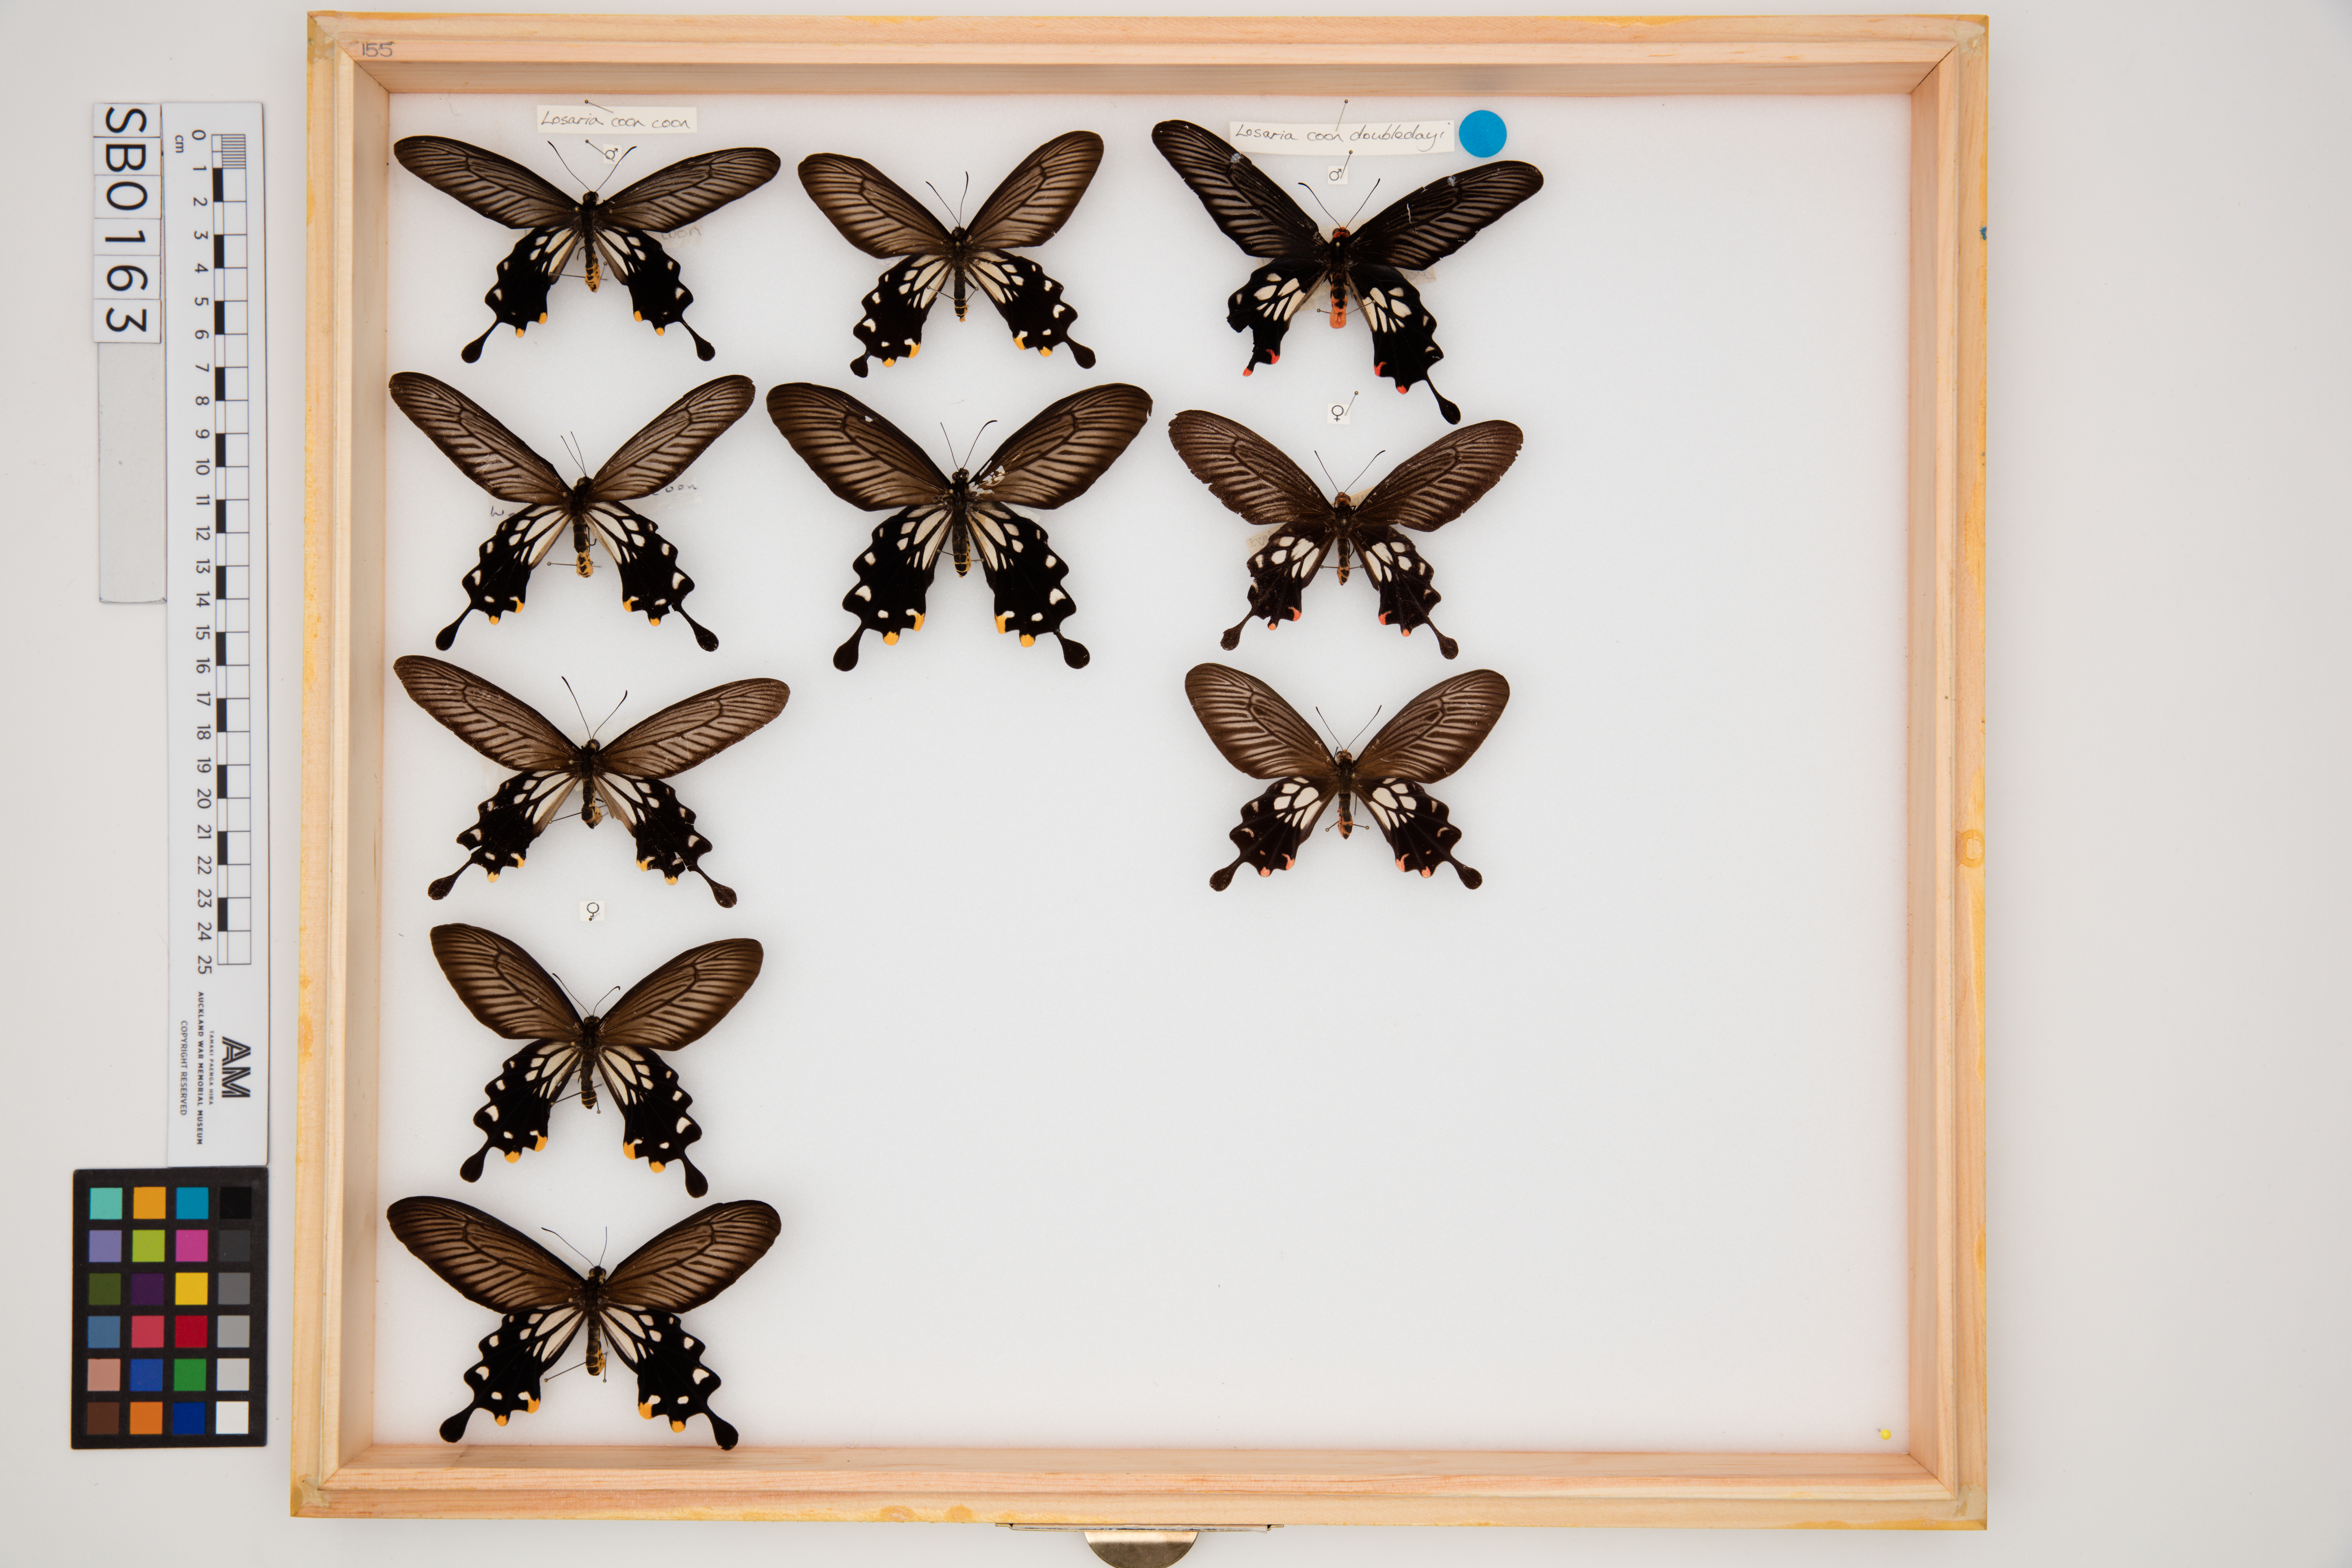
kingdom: Animalia
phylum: Arthropoda
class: Insecta
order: Lepidoptera
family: Papilionidae
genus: Losaria
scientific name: Losaria coon
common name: Common clubtail
